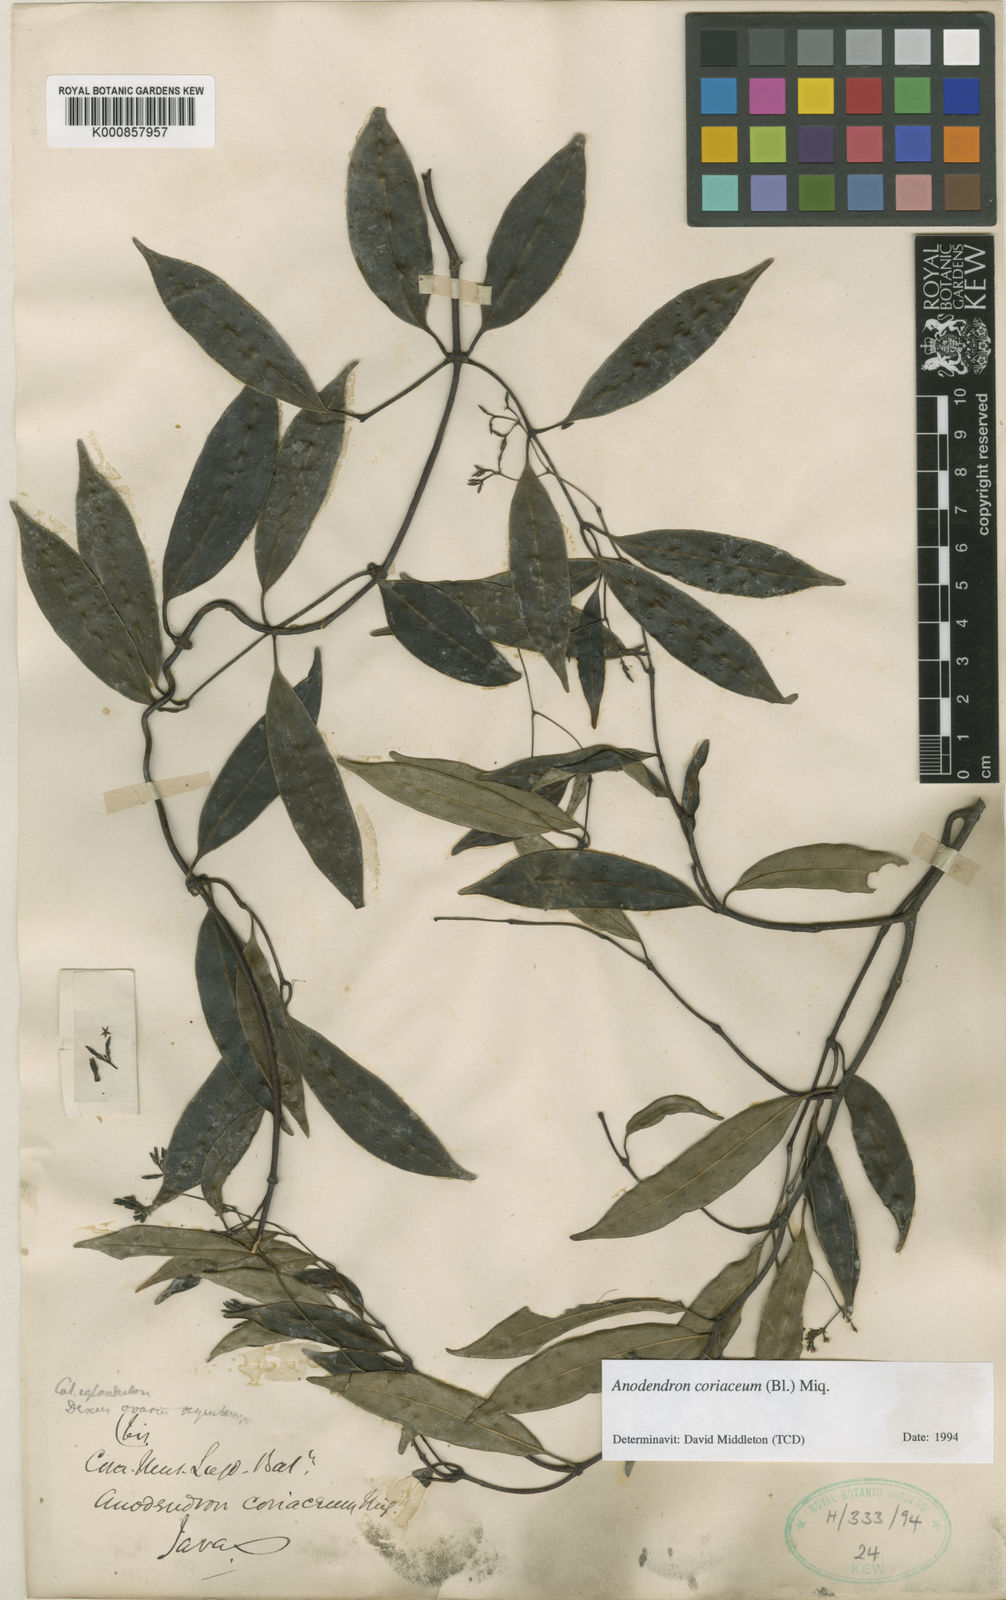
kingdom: Plantae
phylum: Tracheophyta
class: Magnoliopsida
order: Gentianales
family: Apocynaceae
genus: Anodendron
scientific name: Anodendron coriaceum
